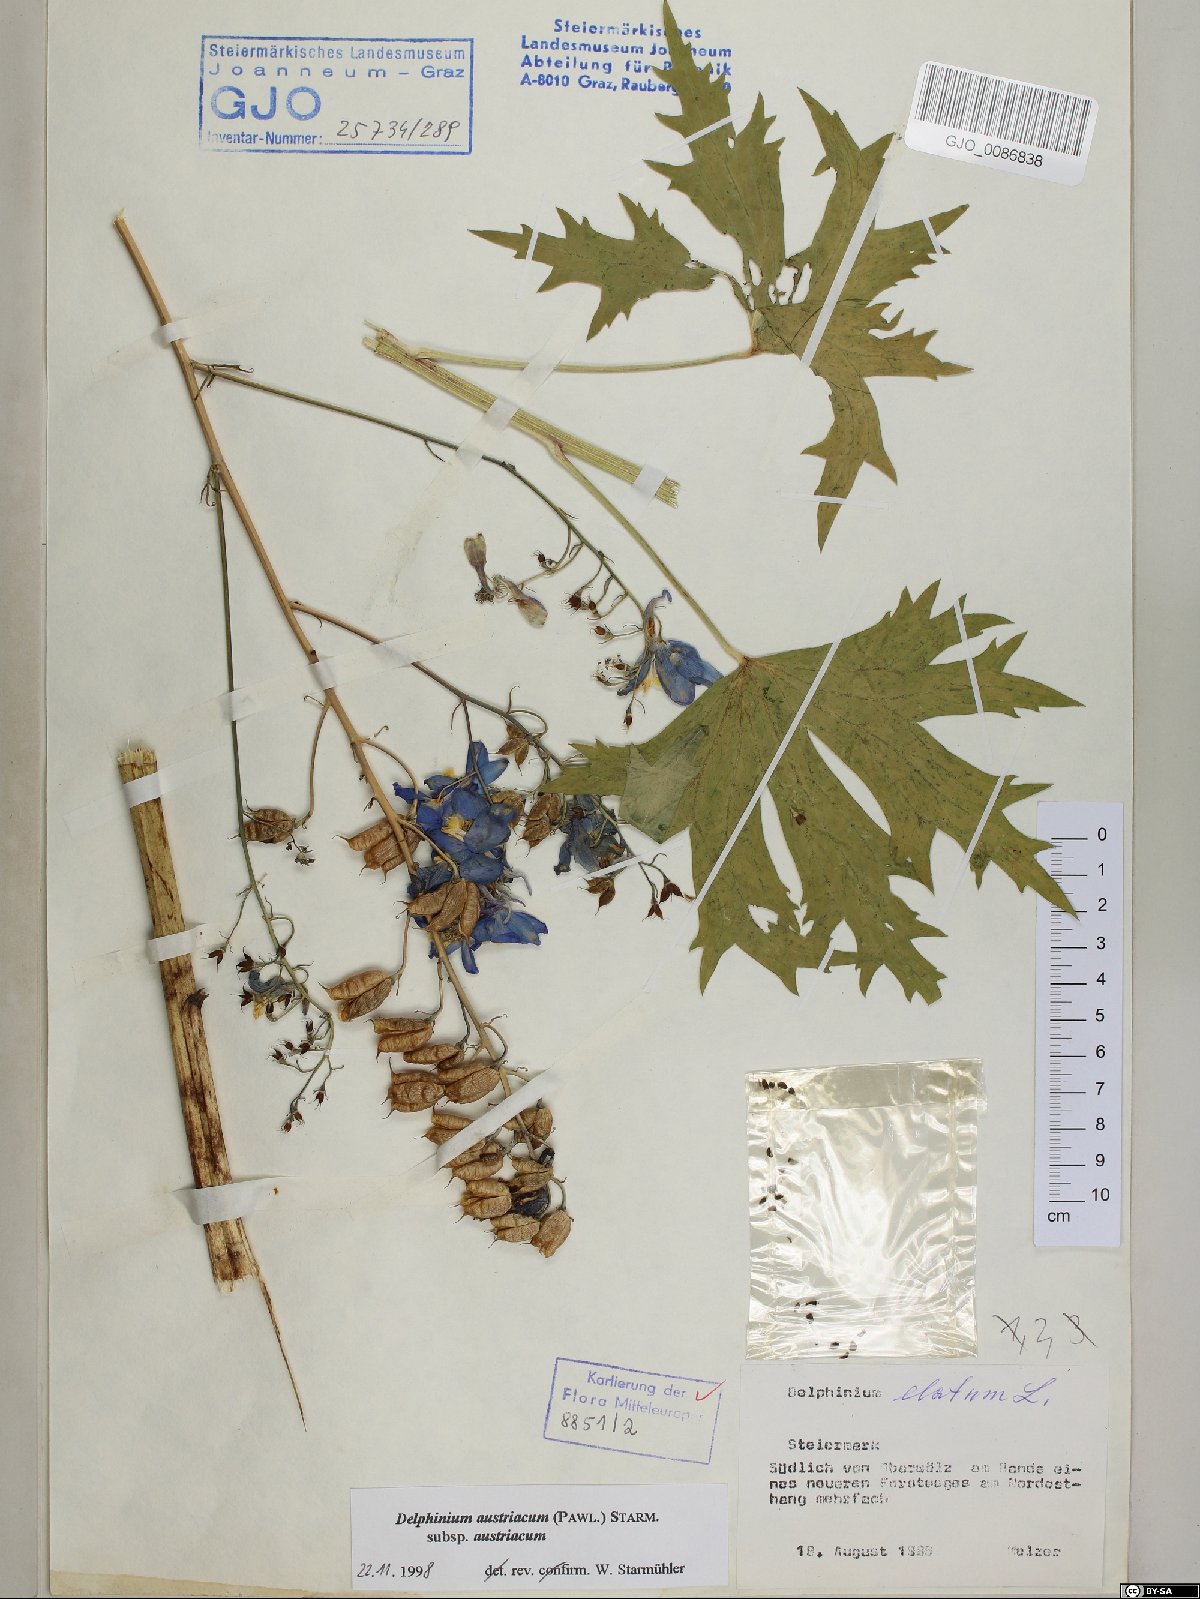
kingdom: Plantae
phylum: Tracheophyta
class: Magnoliopsida
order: Ranunculales
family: Ranunculaceae
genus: Delphinium
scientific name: Delphinium austriacum
